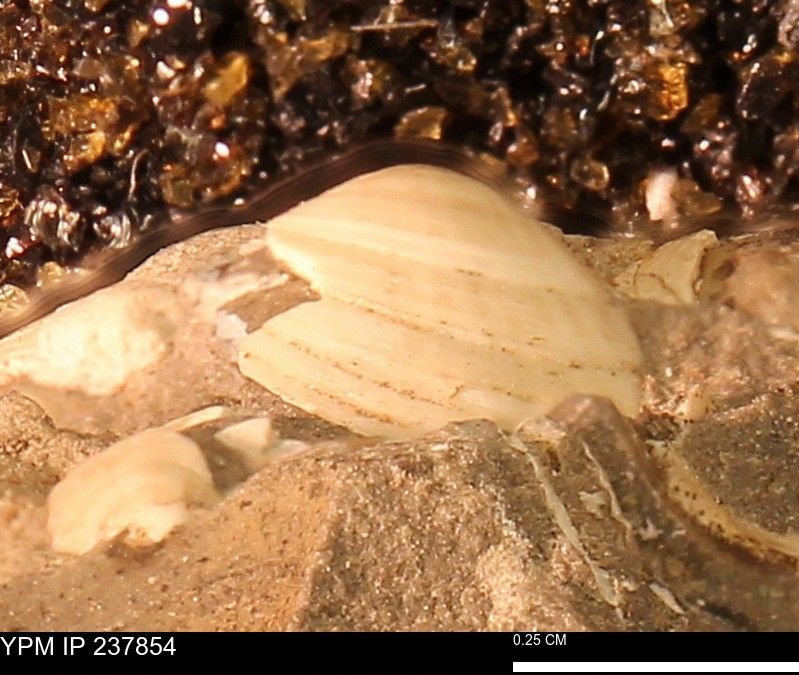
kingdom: Animalia
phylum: Mollusca
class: Bivalvia
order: Arcida
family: Limopsidae
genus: Limopsis
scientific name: Limopsis
